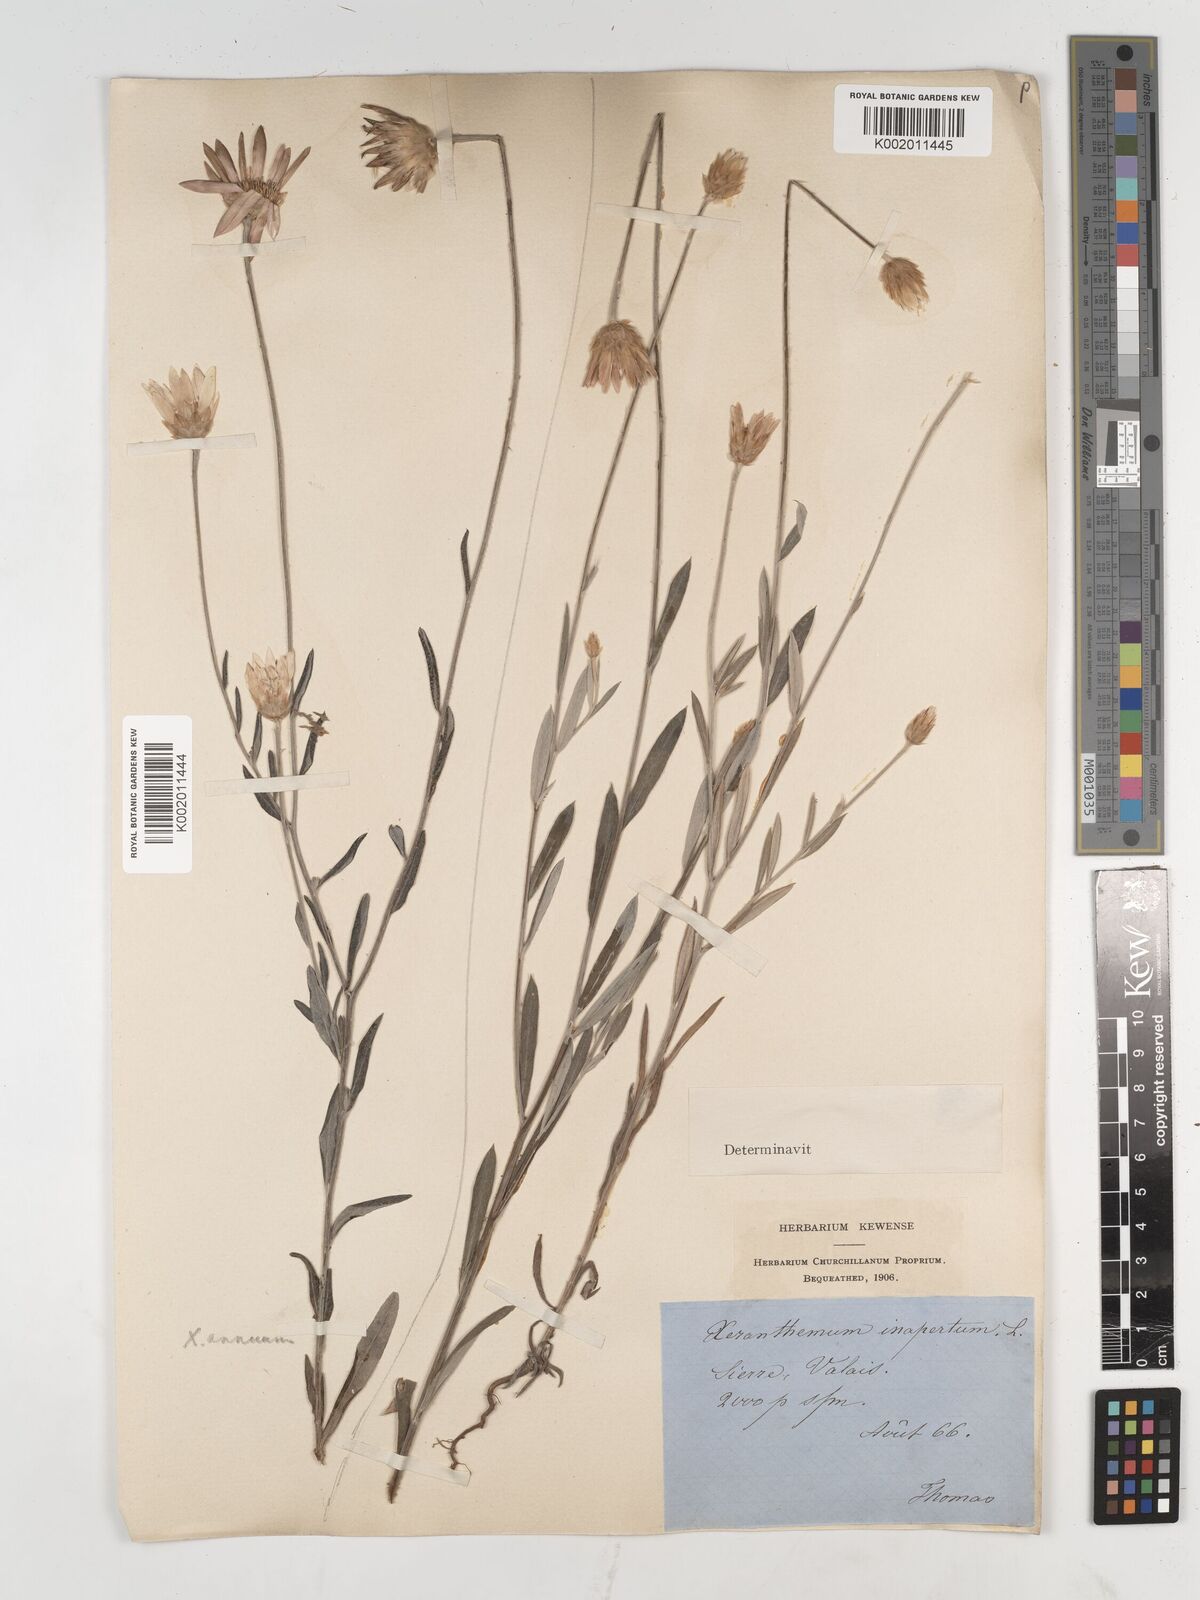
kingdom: Plantae
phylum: Tracheophyta
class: Magnoliopsida
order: Asterales
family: Asteraceae
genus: Xeranthemum
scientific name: Xeranthemum
